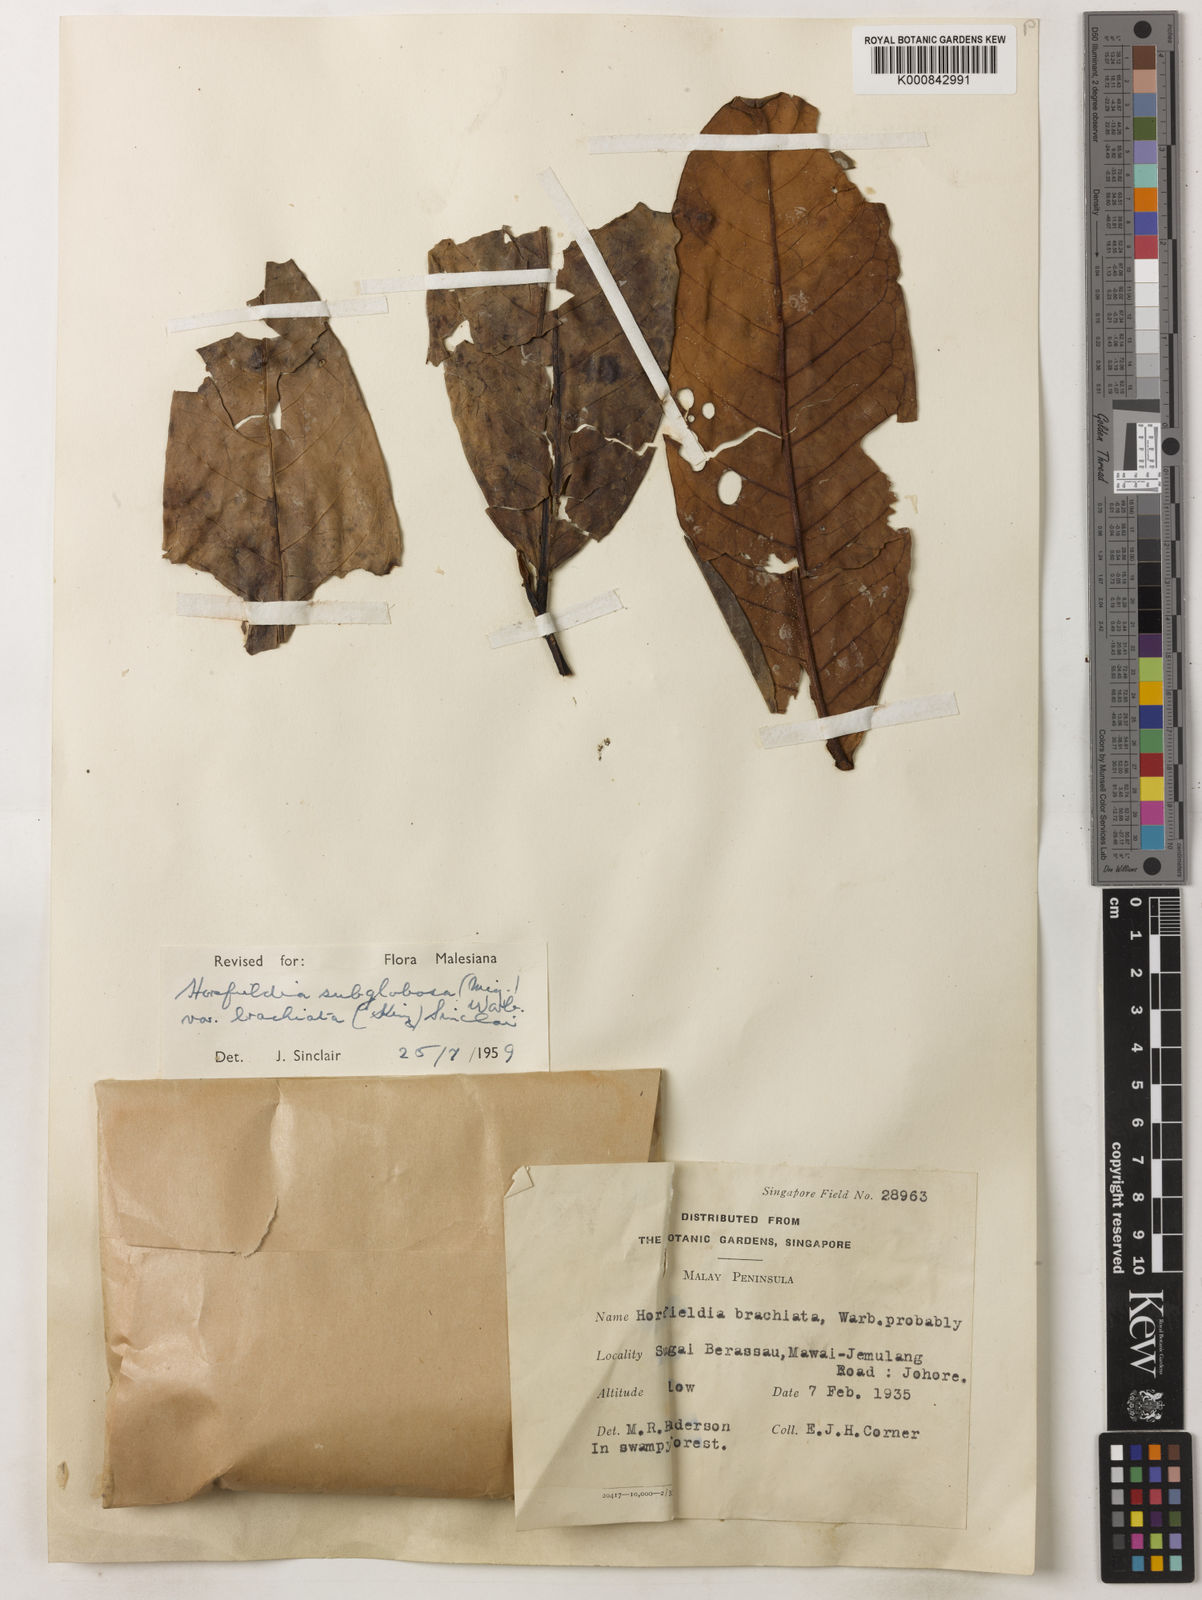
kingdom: Plantae
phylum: Tracheophyta
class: Magnoliopsida
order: Magnoliales
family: Myristicaceae
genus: Horsfieldia
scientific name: Horsfieldia brachiata
